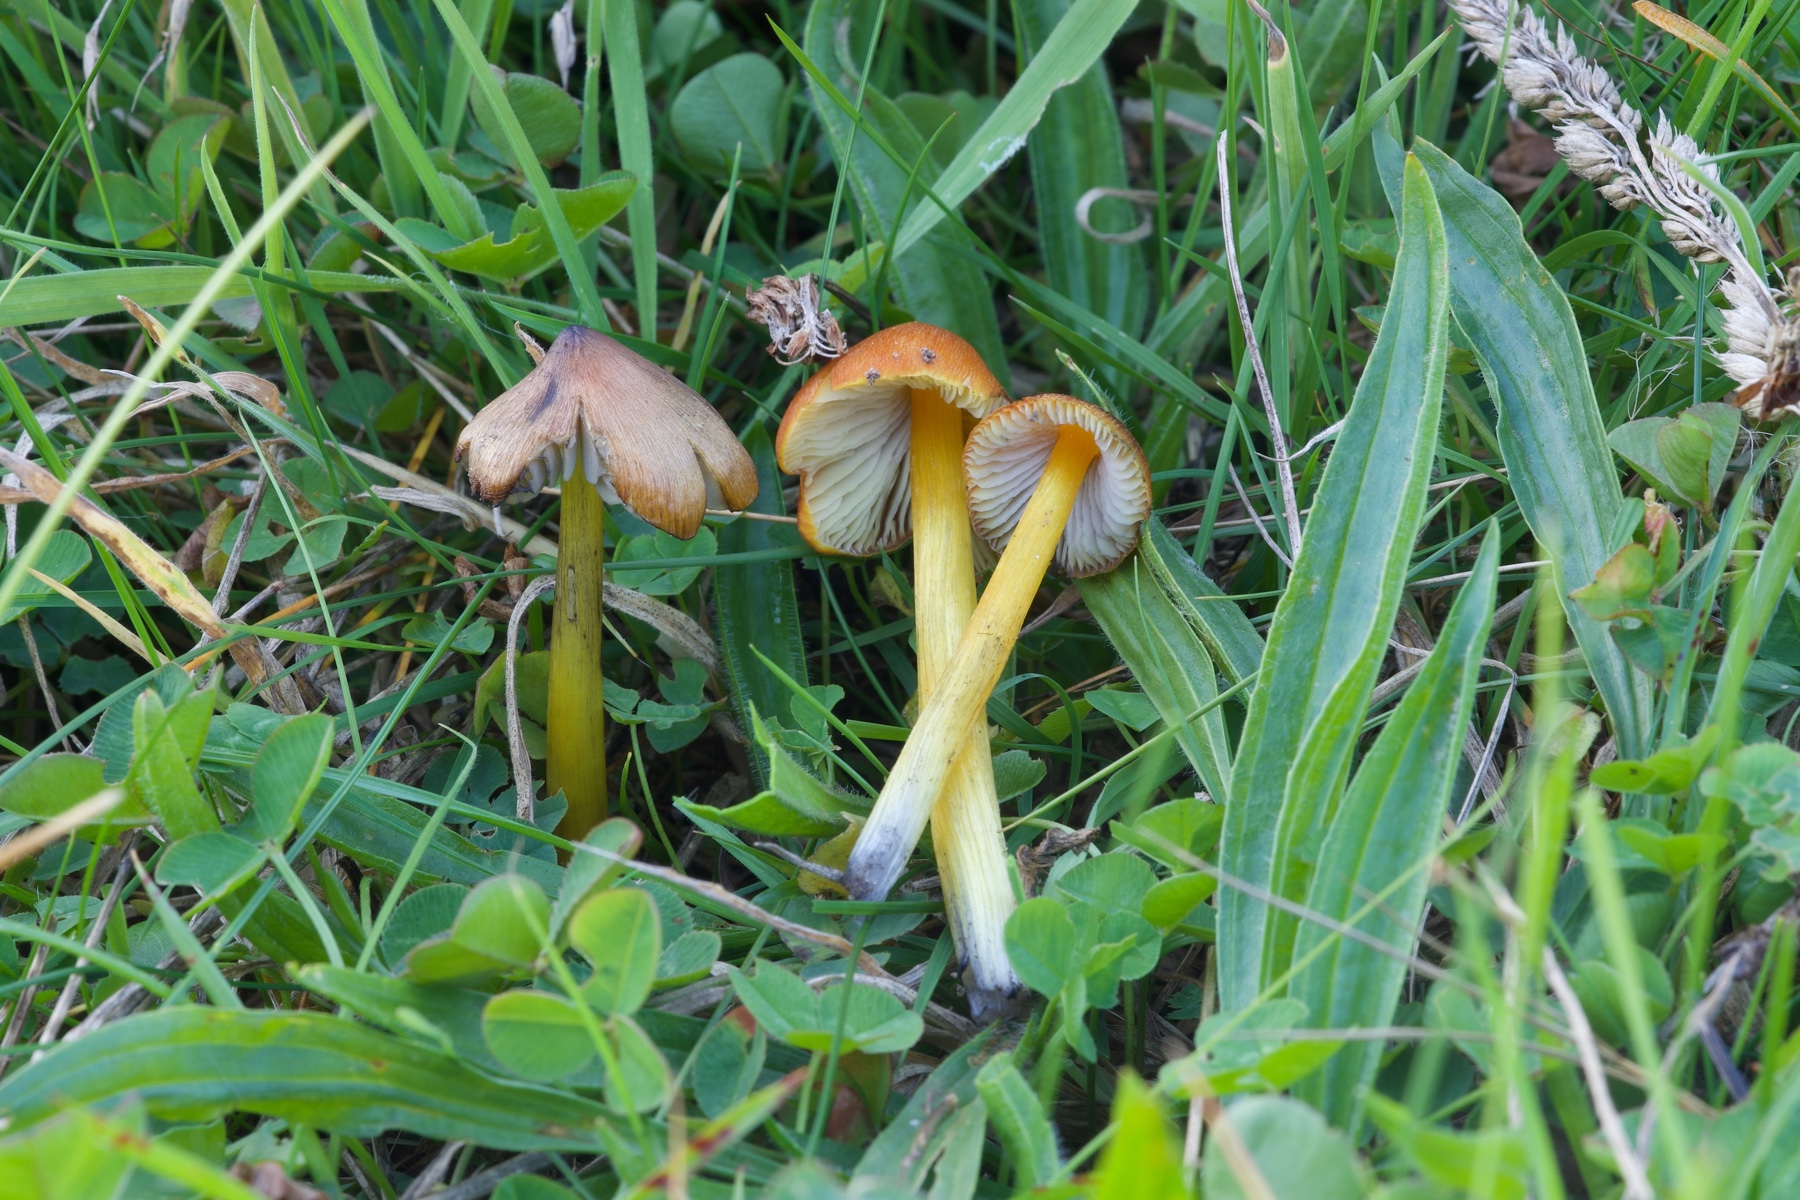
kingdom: Fungi
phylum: Basidiomycota
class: Agaricomycetes
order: Agaricales
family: Hygrophoraceae
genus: Hygrocybe
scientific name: Hygrocybe conica
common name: kegle-vokshat
